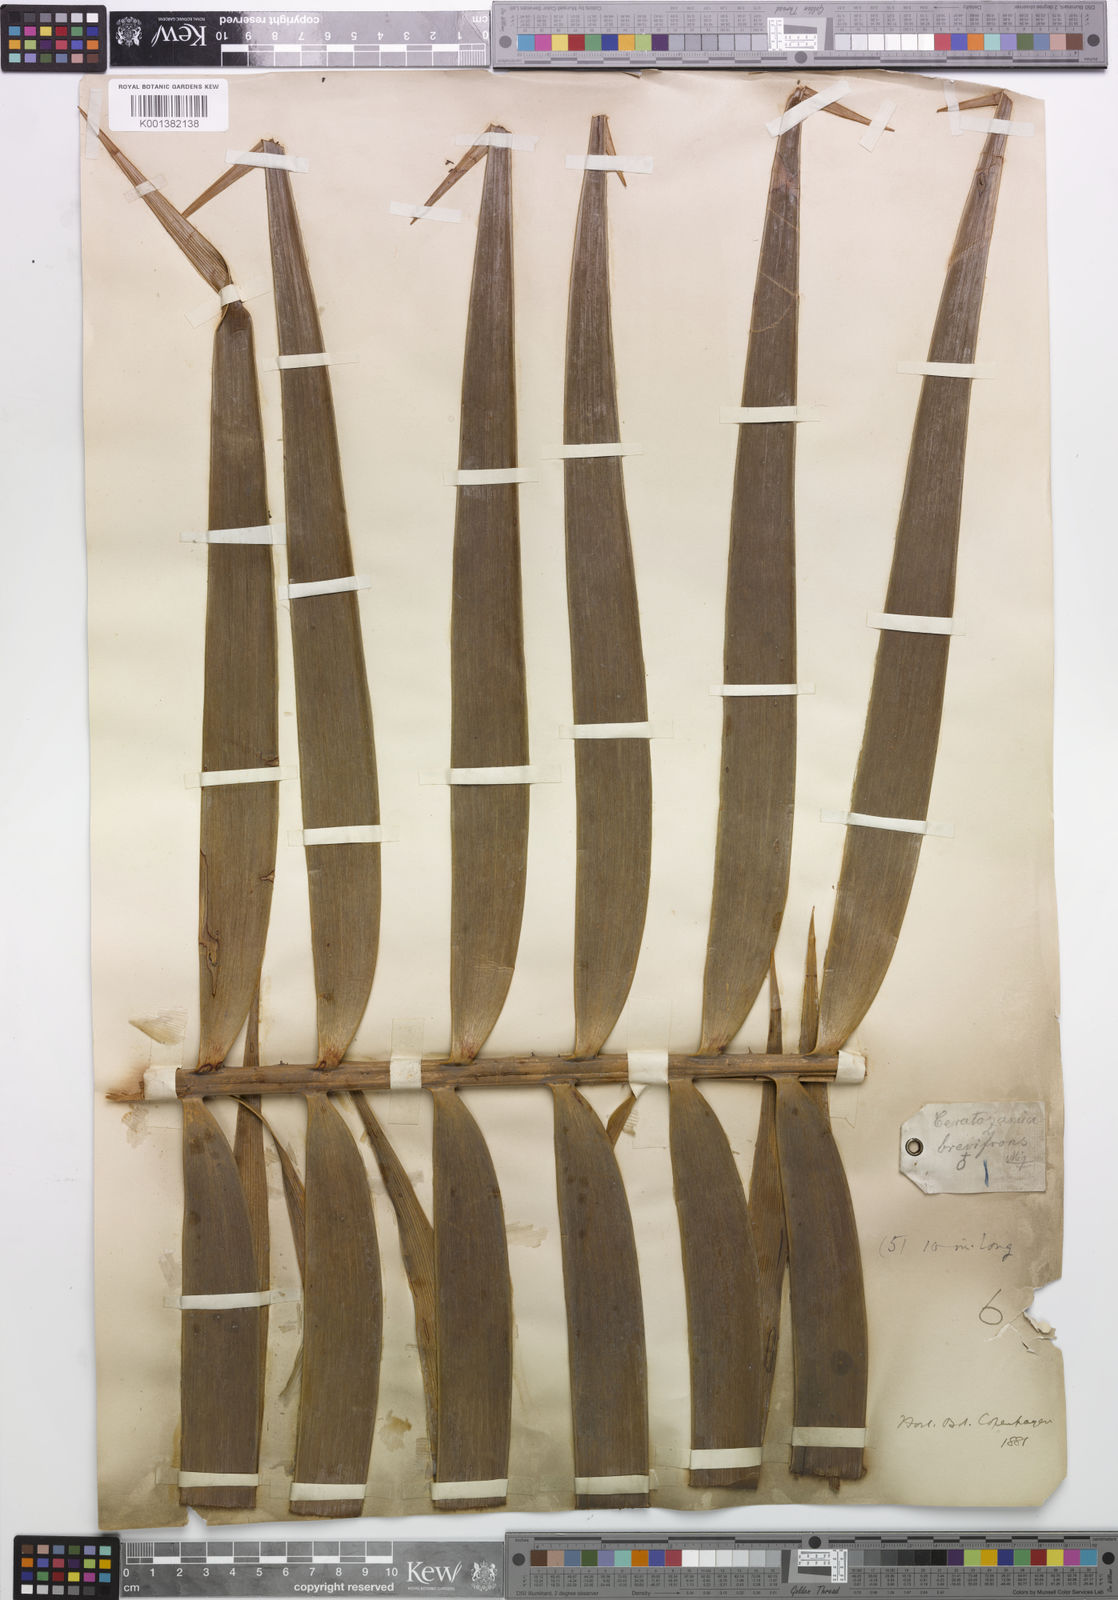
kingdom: Plantae
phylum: Tracheophyta
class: Cycadopsida
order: Cycadales
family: Zamiaceae
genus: Ceratozamia
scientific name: Ceratozamia mexicana
